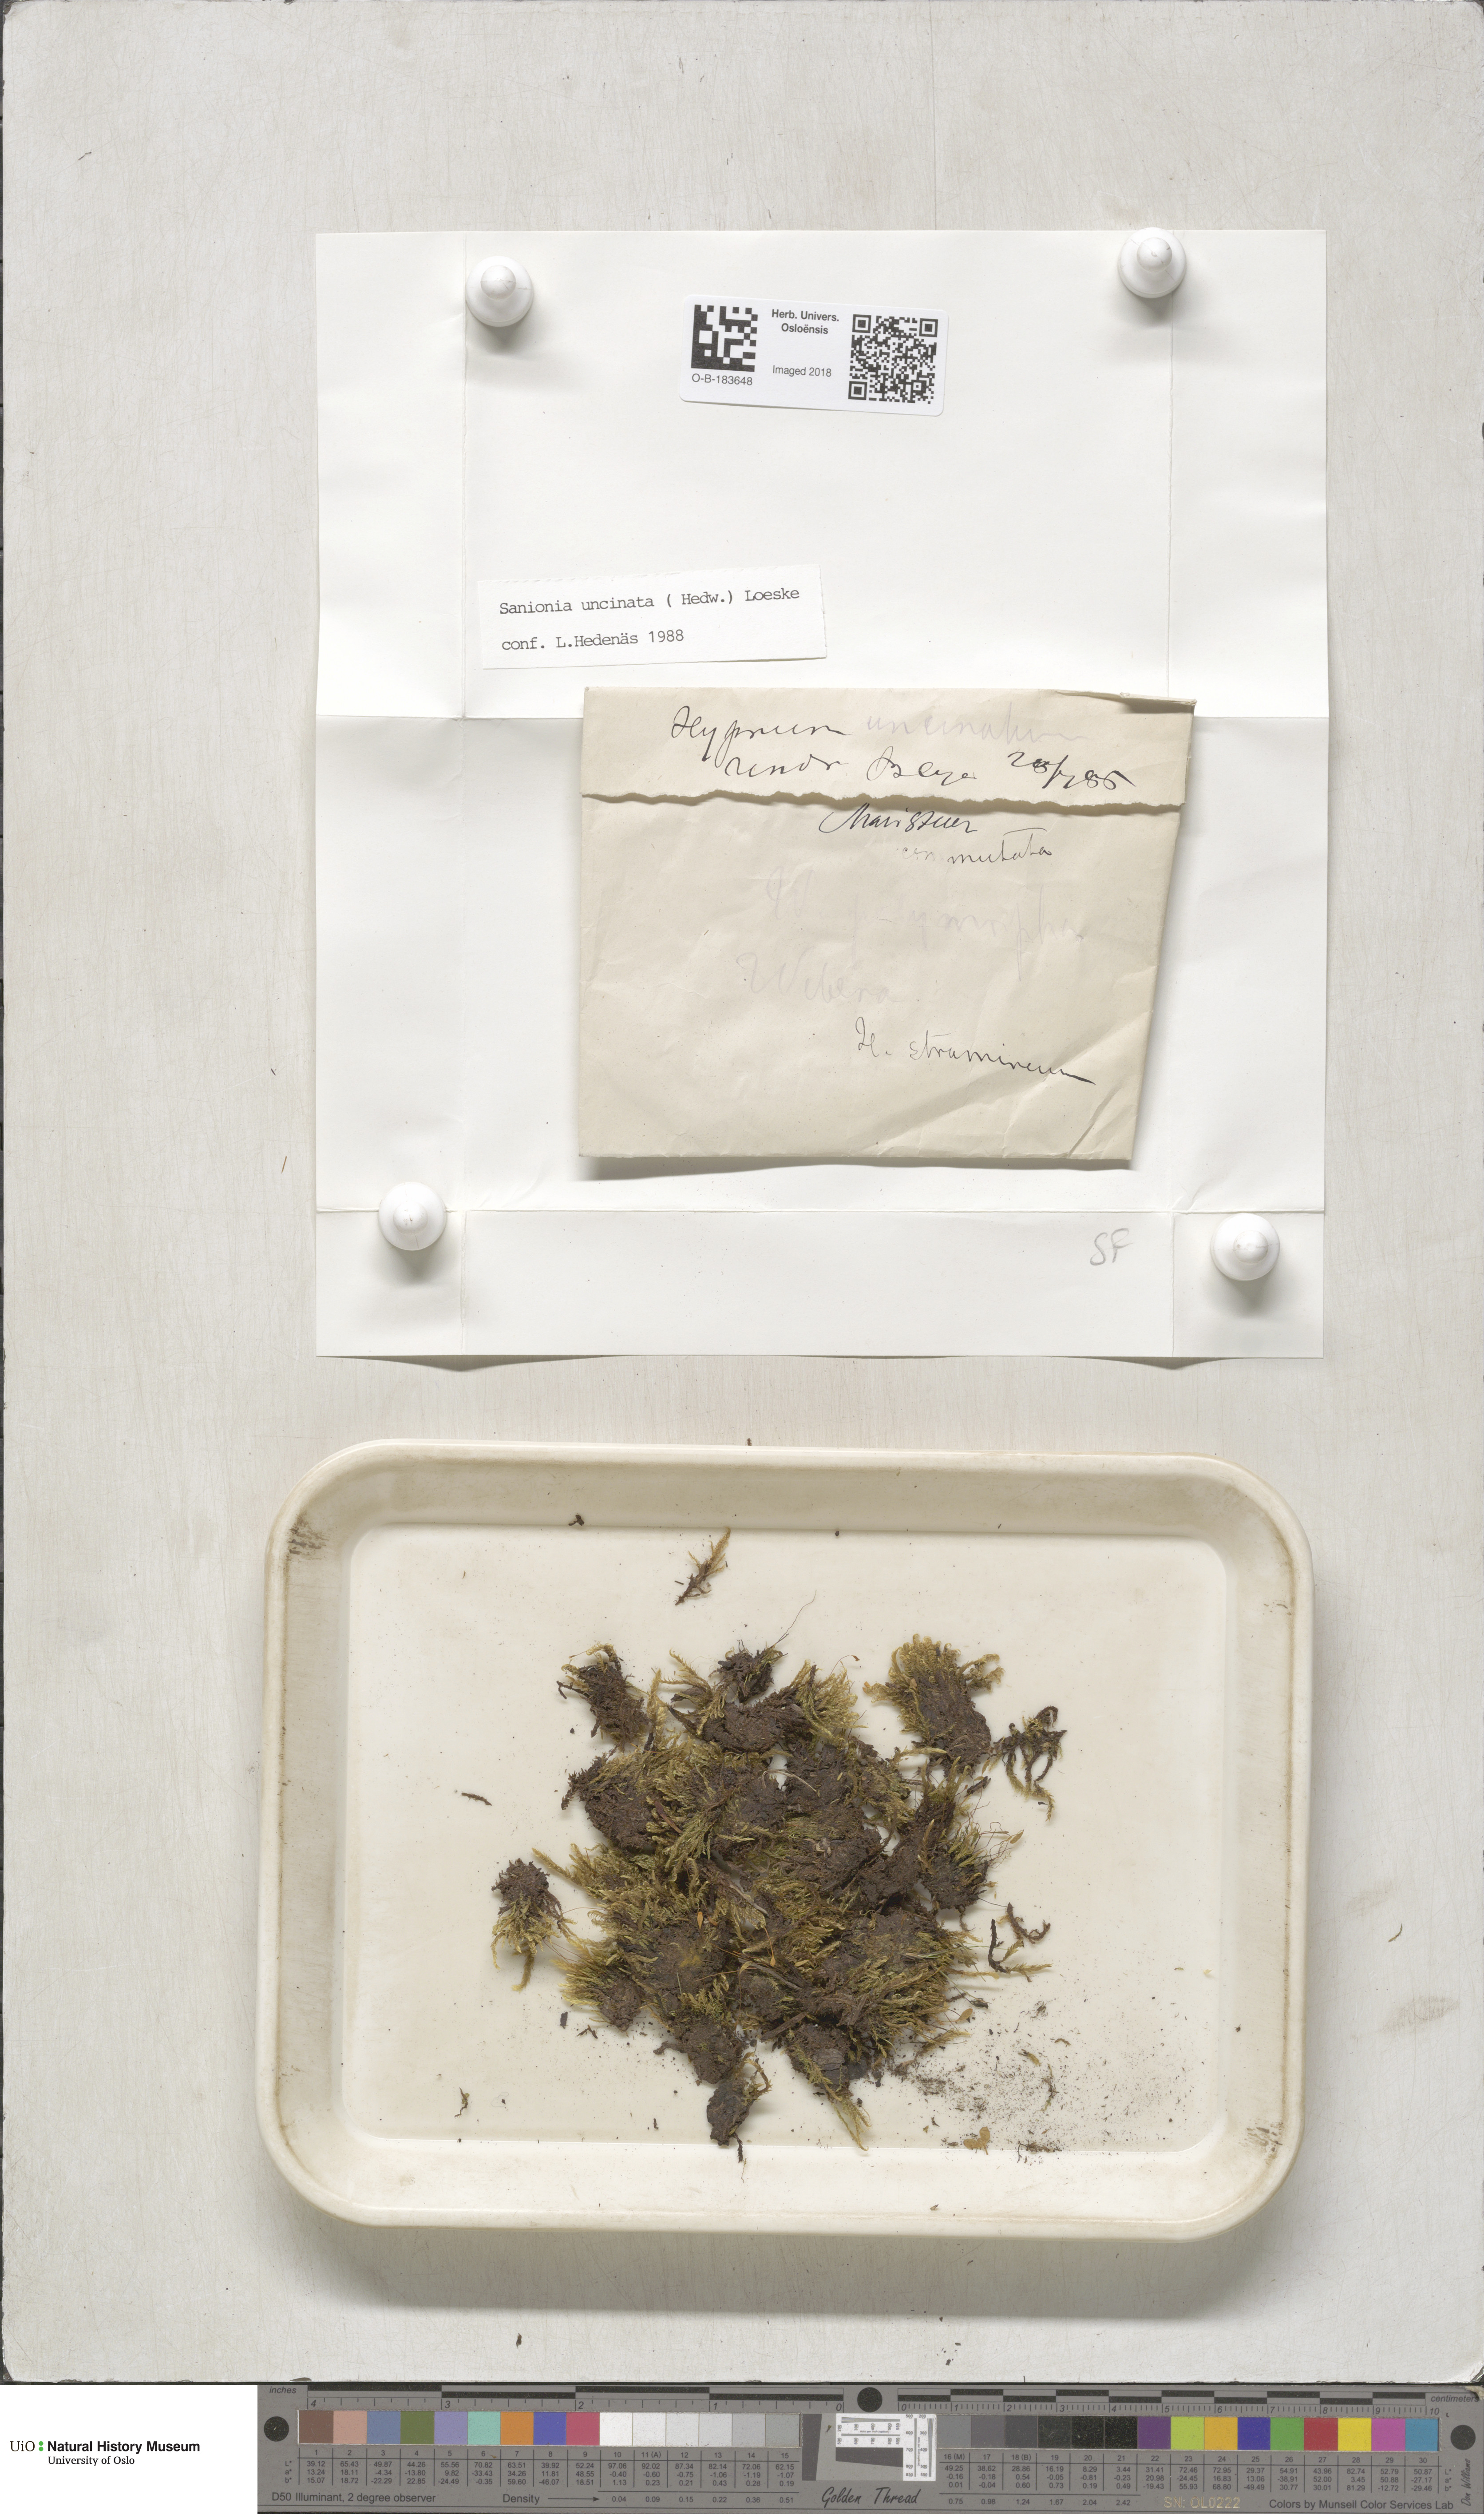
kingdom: Plantae
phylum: Bryophyta
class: Bryopsida
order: Hypnales
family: Scorpidiaceae
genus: Sanionia
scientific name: Sanionia uncinata
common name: Sickle moss
